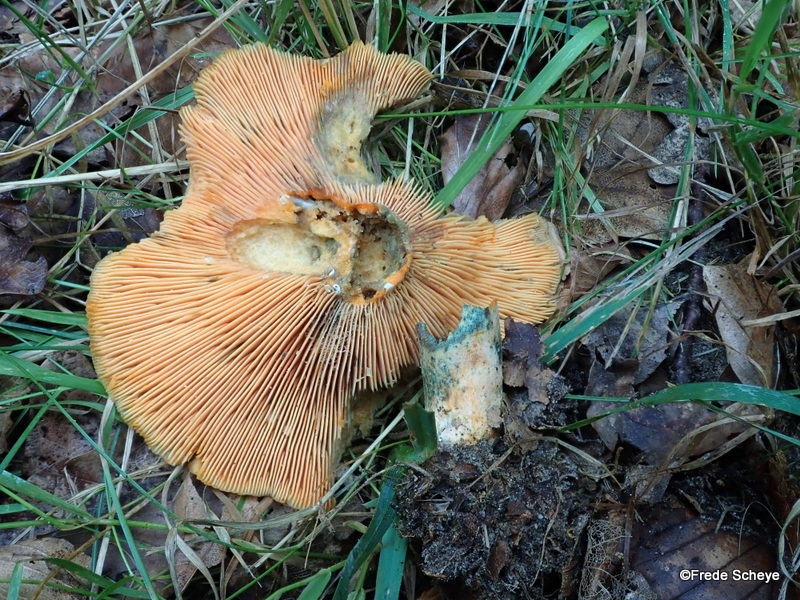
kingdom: Fungi
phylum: Basidiomycota
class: Agaricomycetes
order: Russulales
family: Russulaceae
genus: Lactarius
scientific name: Lactarius deterrimus
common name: gran-mælkehat
